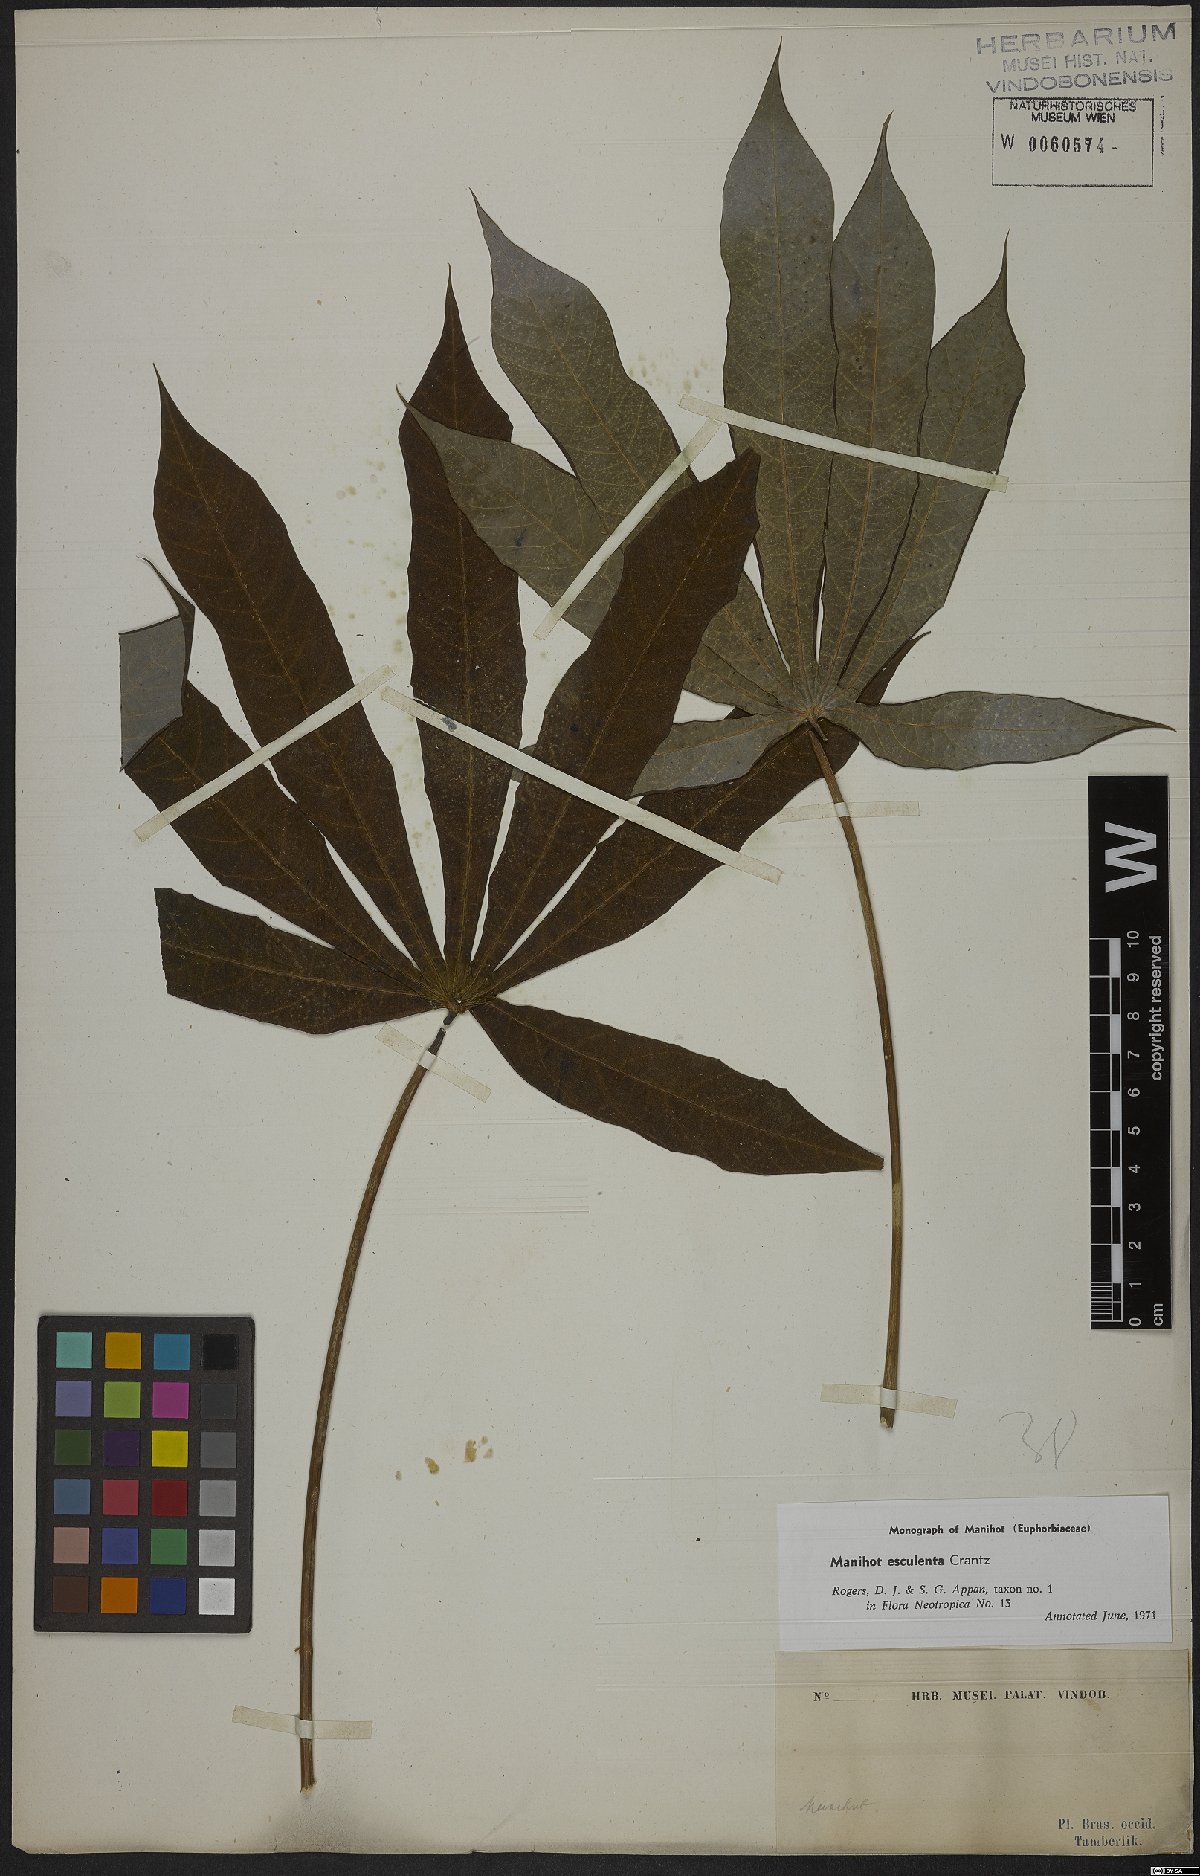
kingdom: Plantae
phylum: Tracheophyta
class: Magnoliopsida
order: Malpighiales
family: Euphorbiaceae
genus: Manihot
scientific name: Manihot esculenta
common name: Cassava
